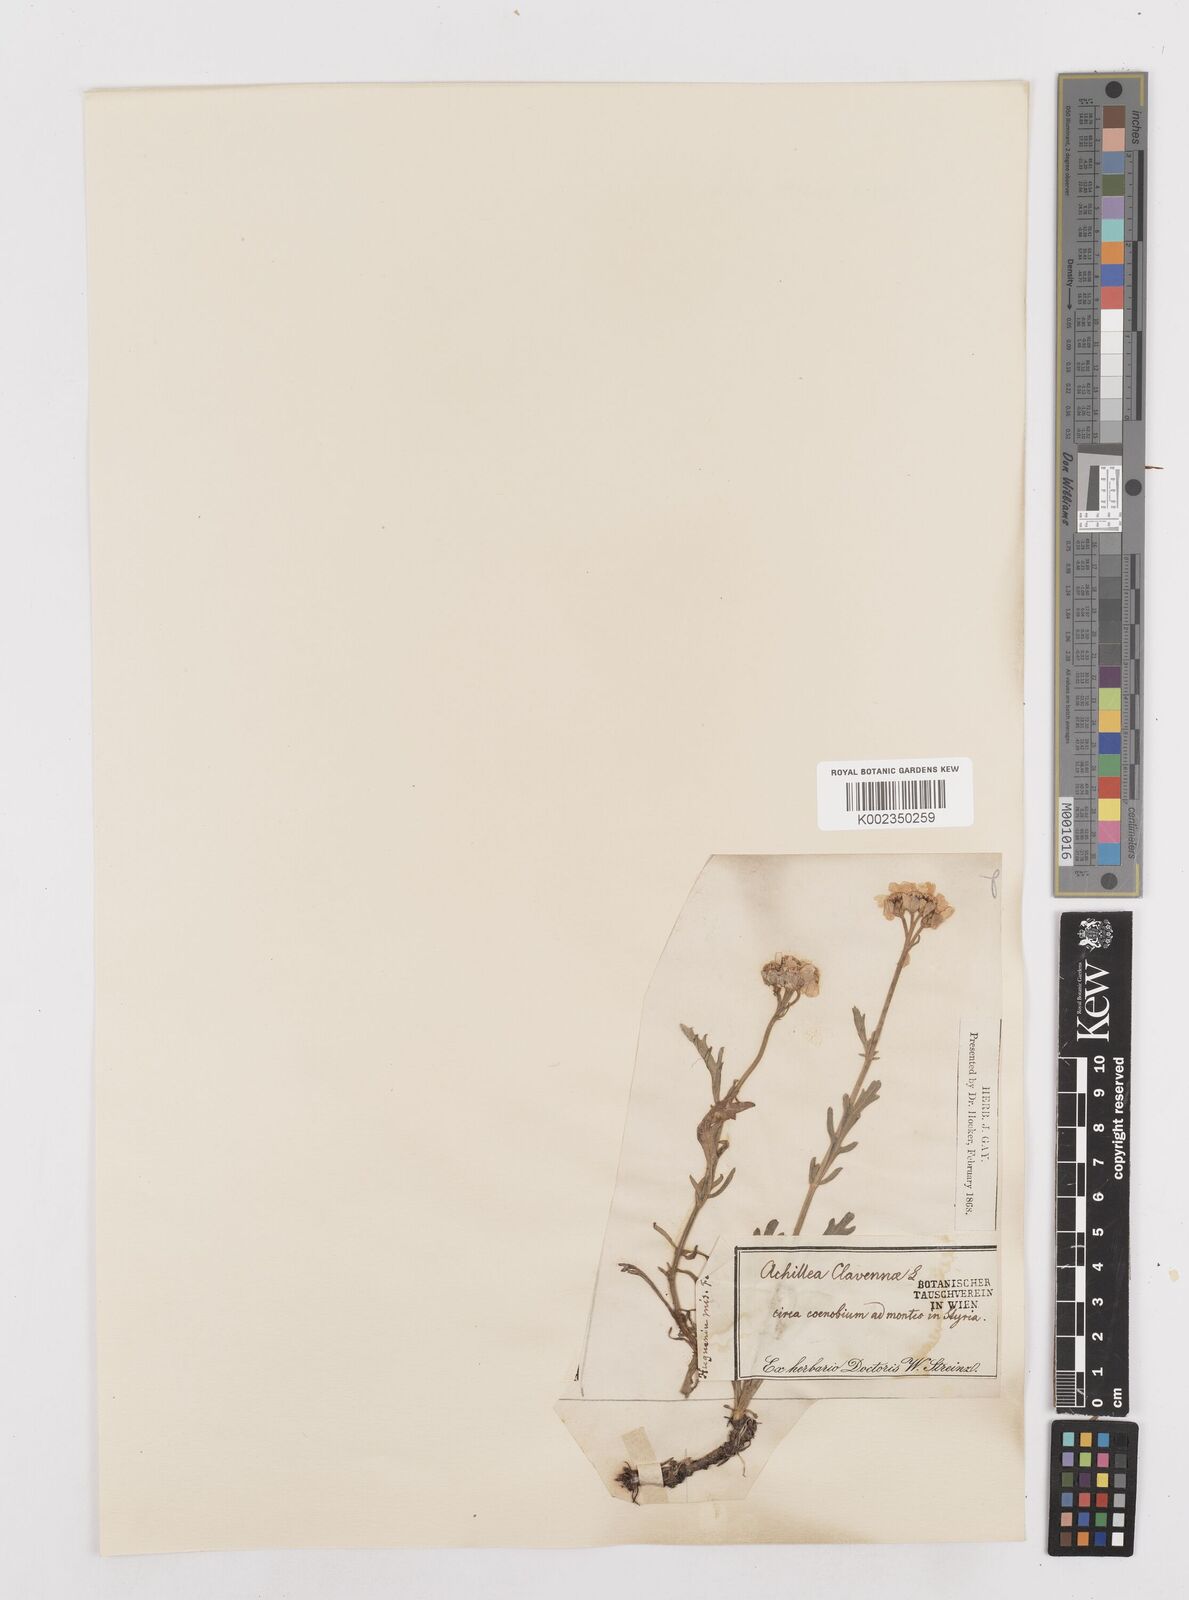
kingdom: Plantae
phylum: Tracheophyta
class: Magnoliopsida
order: Asterales
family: Asteraceae
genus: Achillea
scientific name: Achillea clavennae
